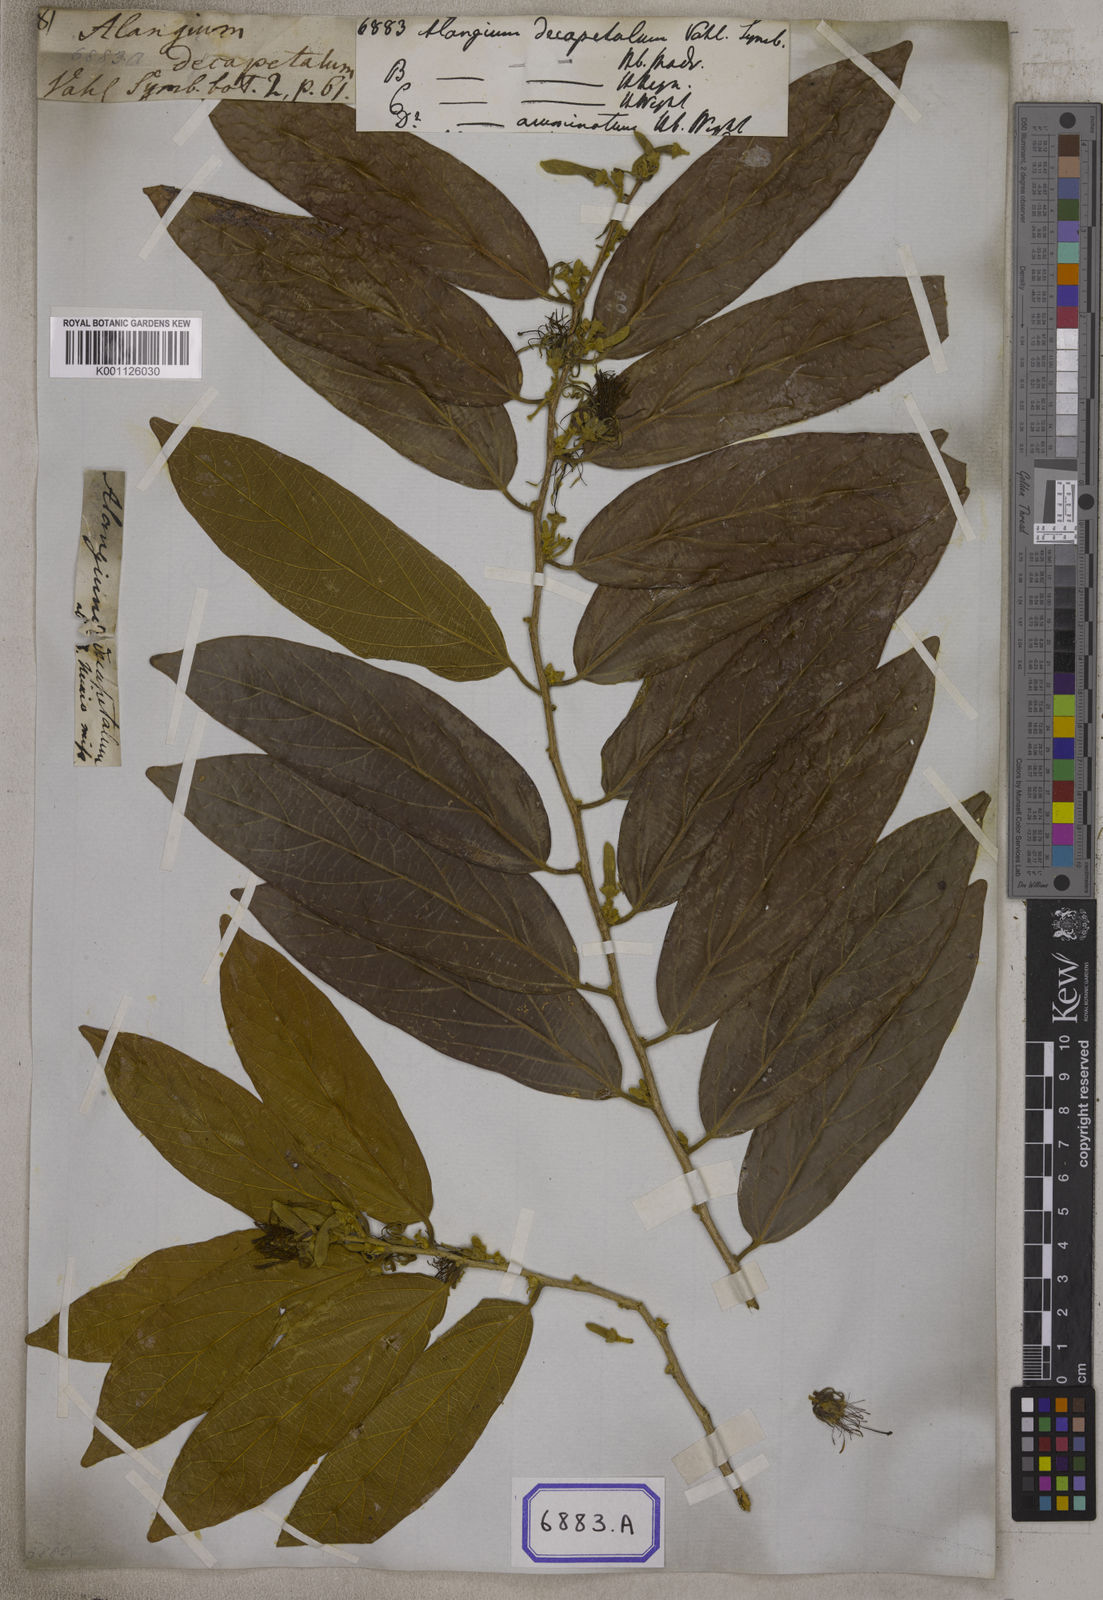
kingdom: Plantae
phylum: Tracheophyta
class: Magnoliopsida
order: Cornales
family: Cornaceae
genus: Alangium
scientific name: Alangium salviifolium
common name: Sage-leaf alangium
